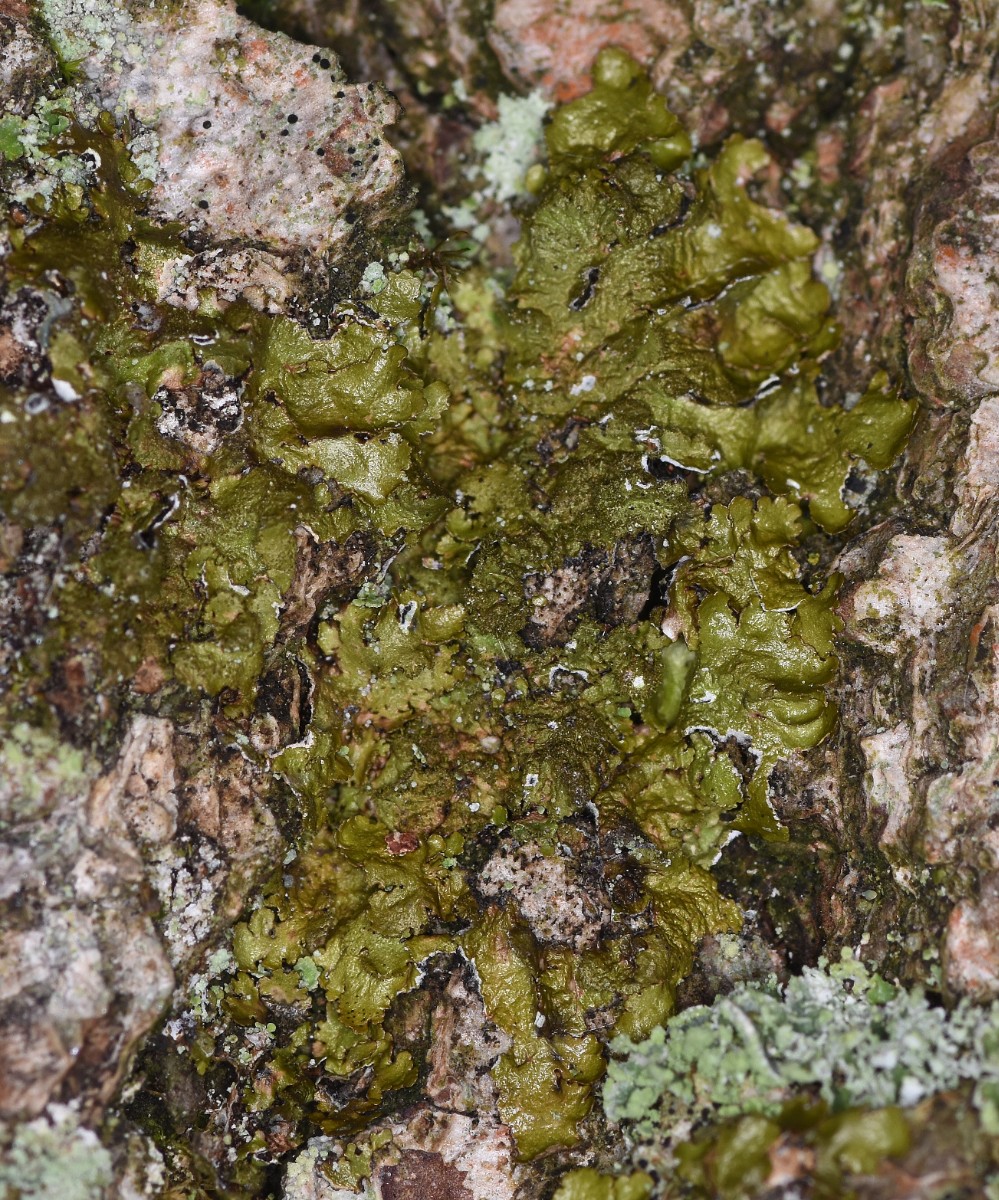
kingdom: Fungi
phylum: Ascomycota
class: Lecanoromycetes
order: Lecanorales
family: Parmeliaceae
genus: Melanelixia
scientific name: Melanelixia glabratula
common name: glinsende skållav
